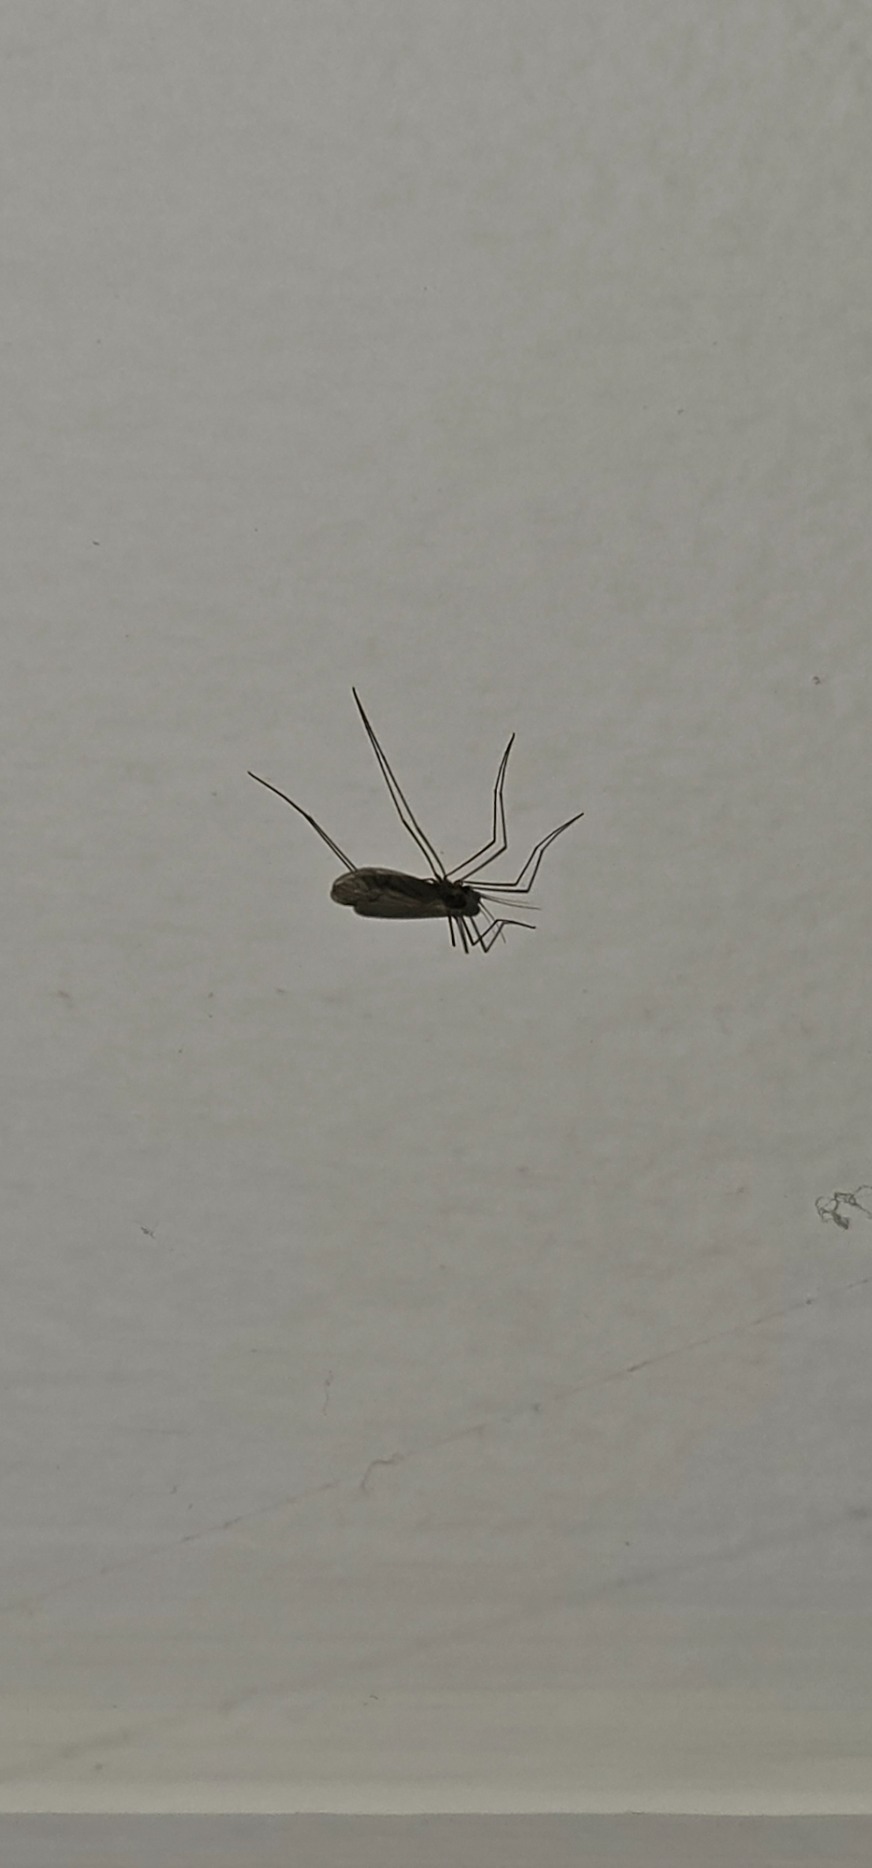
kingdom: Animalia
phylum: Arthropoda
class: Insecta
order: Diptera
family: Trichoceridae
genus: Trichocera
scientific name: Trichocera
